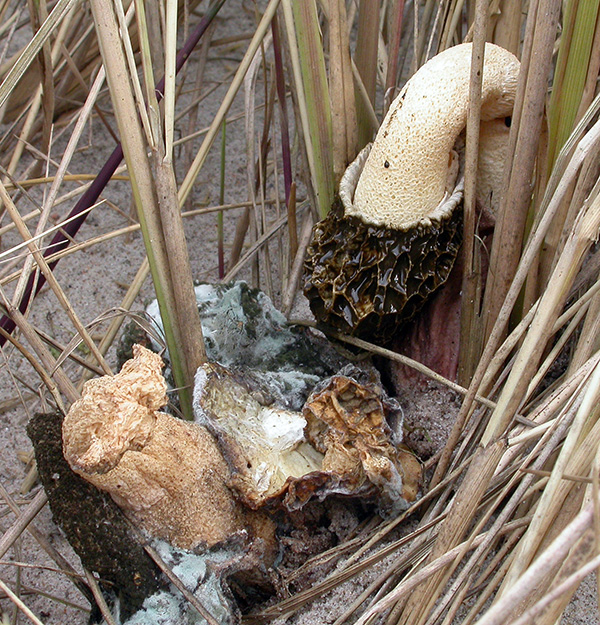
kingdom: Fungi
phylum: Basidiomycota
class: Agaricomycetes
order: Phallales
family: Phallaceae
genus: Phallus
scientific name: Phallus hadriani
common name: sand-stinksvamp
